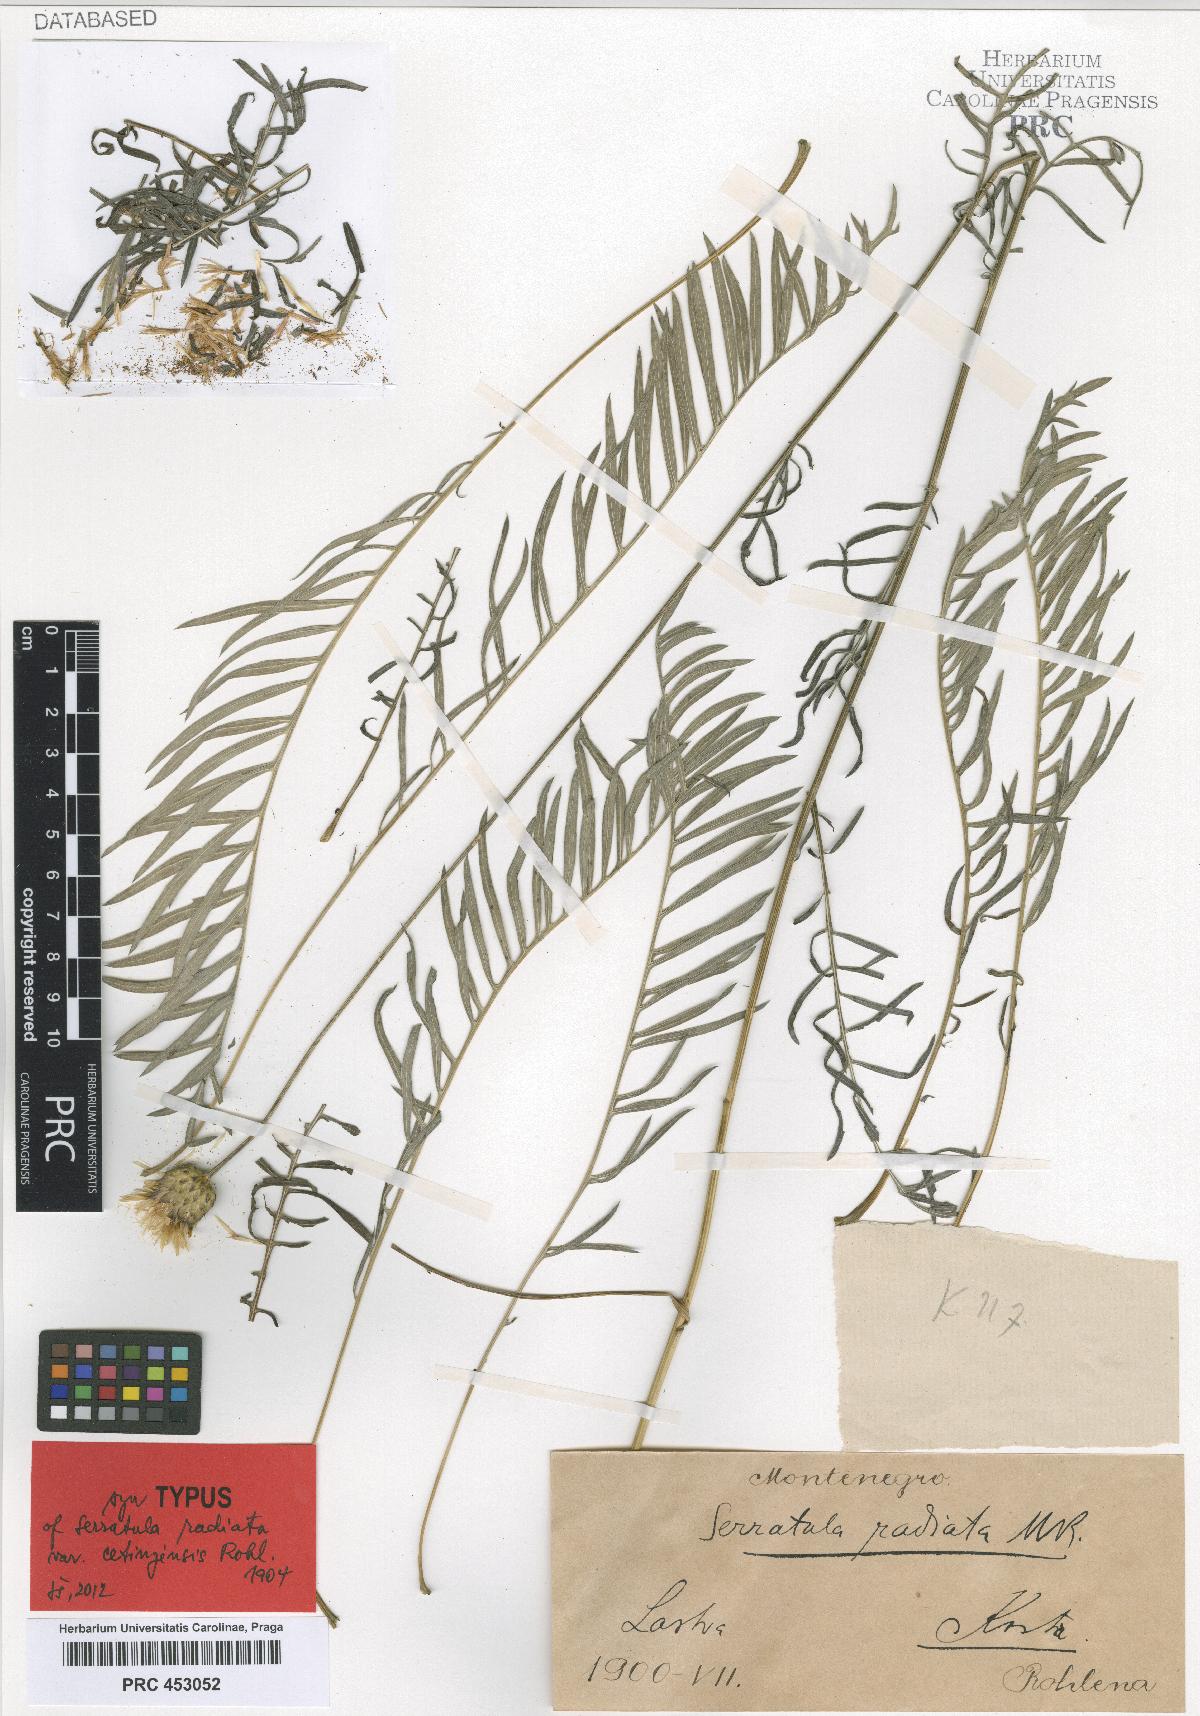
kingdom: Plantae
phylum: Tracheophyta
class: Magnoliopsida
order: Asterales
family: Asteraceae
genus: Klasea
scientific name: Klasea radiata
